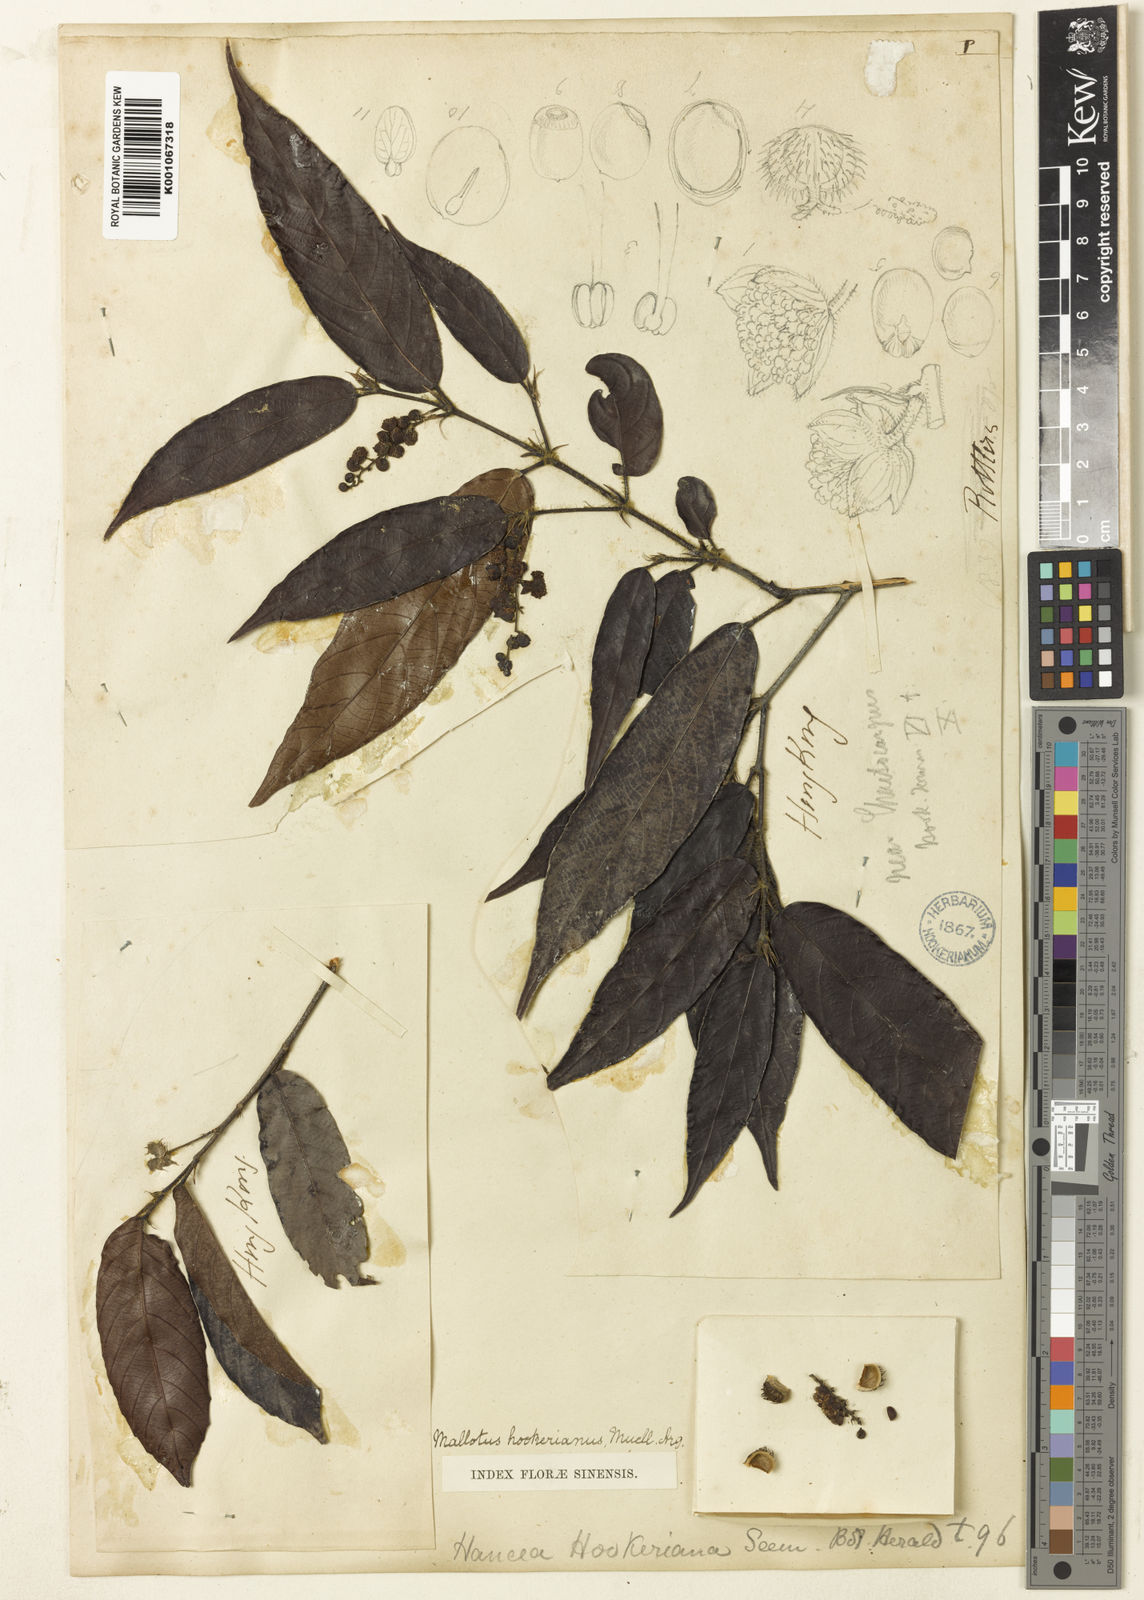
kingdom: Plantae
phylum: Tracheophyta
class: Magnoliopsida
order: Malpighiales
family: Euphorbiaceae
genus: Hancea
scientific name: Hancea hookeriana
